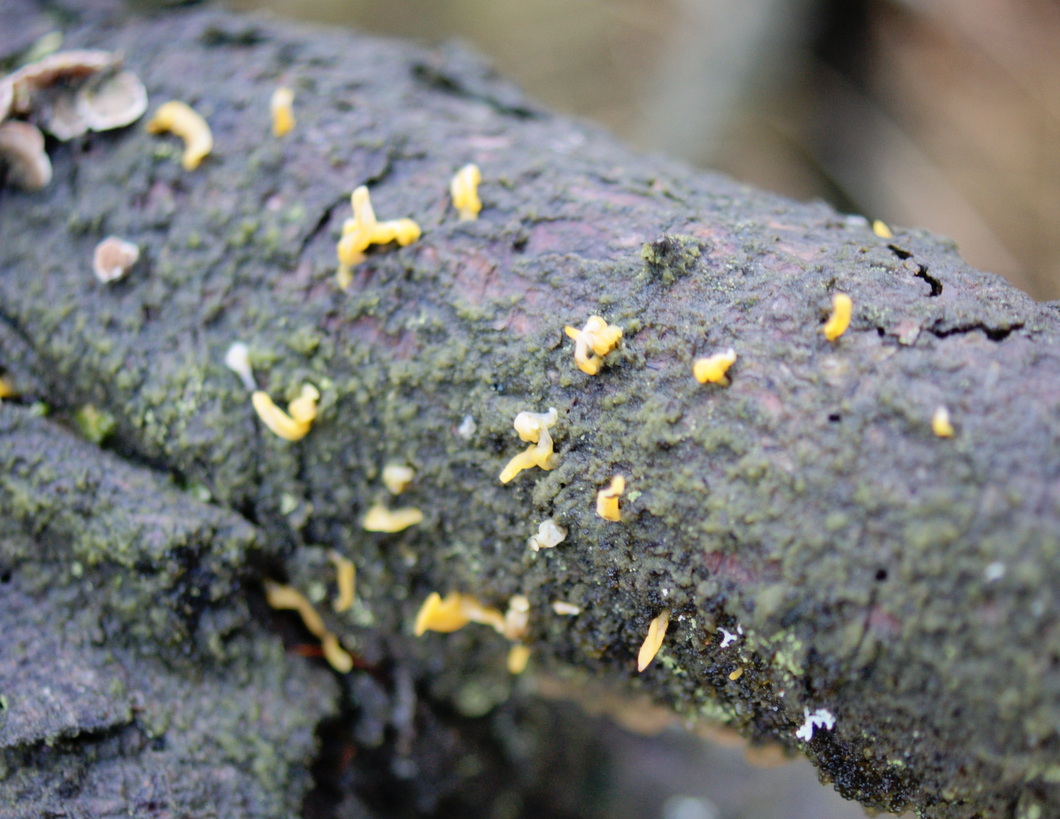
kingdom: Fungi
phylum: Basidiomycota
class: Dacrymycetes
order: Dacrymycetales
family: Dacrymycetaceae
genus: Calocera
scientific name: Calocera furcata
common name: fyrre-guldgaffel
